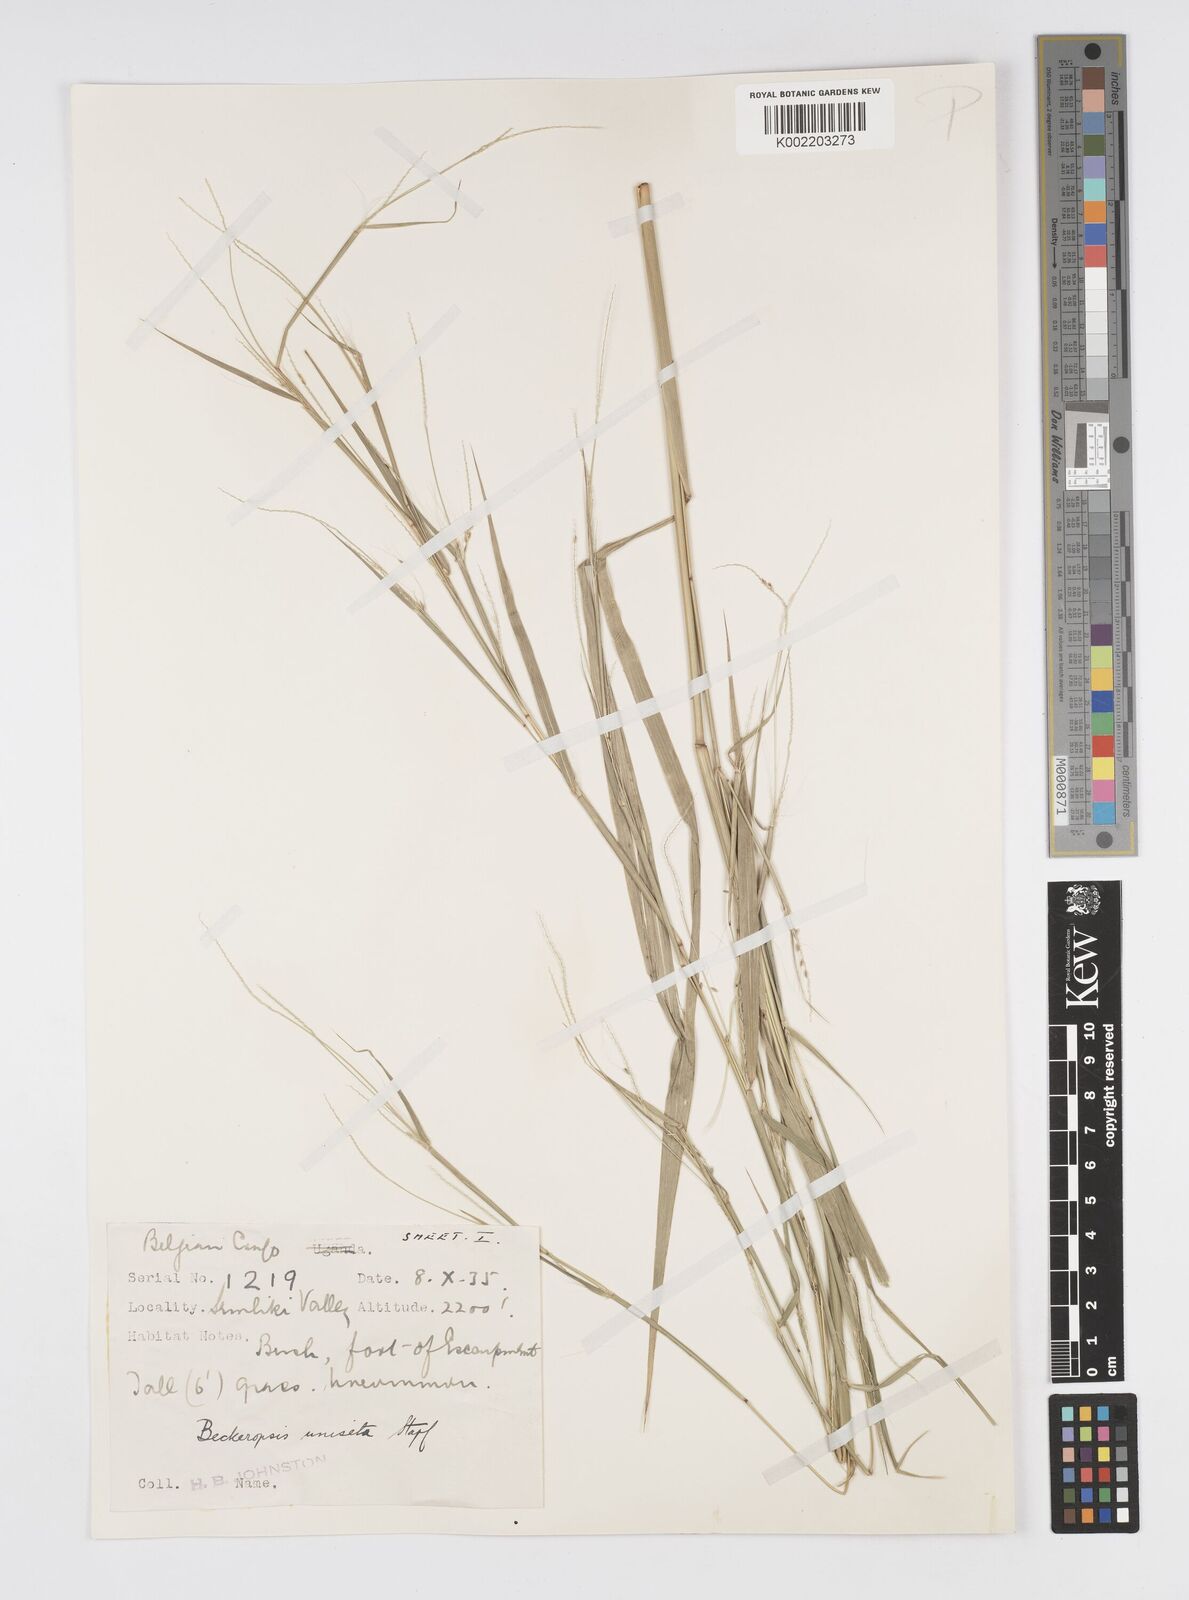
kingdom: Plantae
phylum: Tracheophyta
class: Liliopsida
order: Poales
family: Poaceae
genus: Cenchrus
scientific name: Cenchrus unisetus
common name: Natal grass
